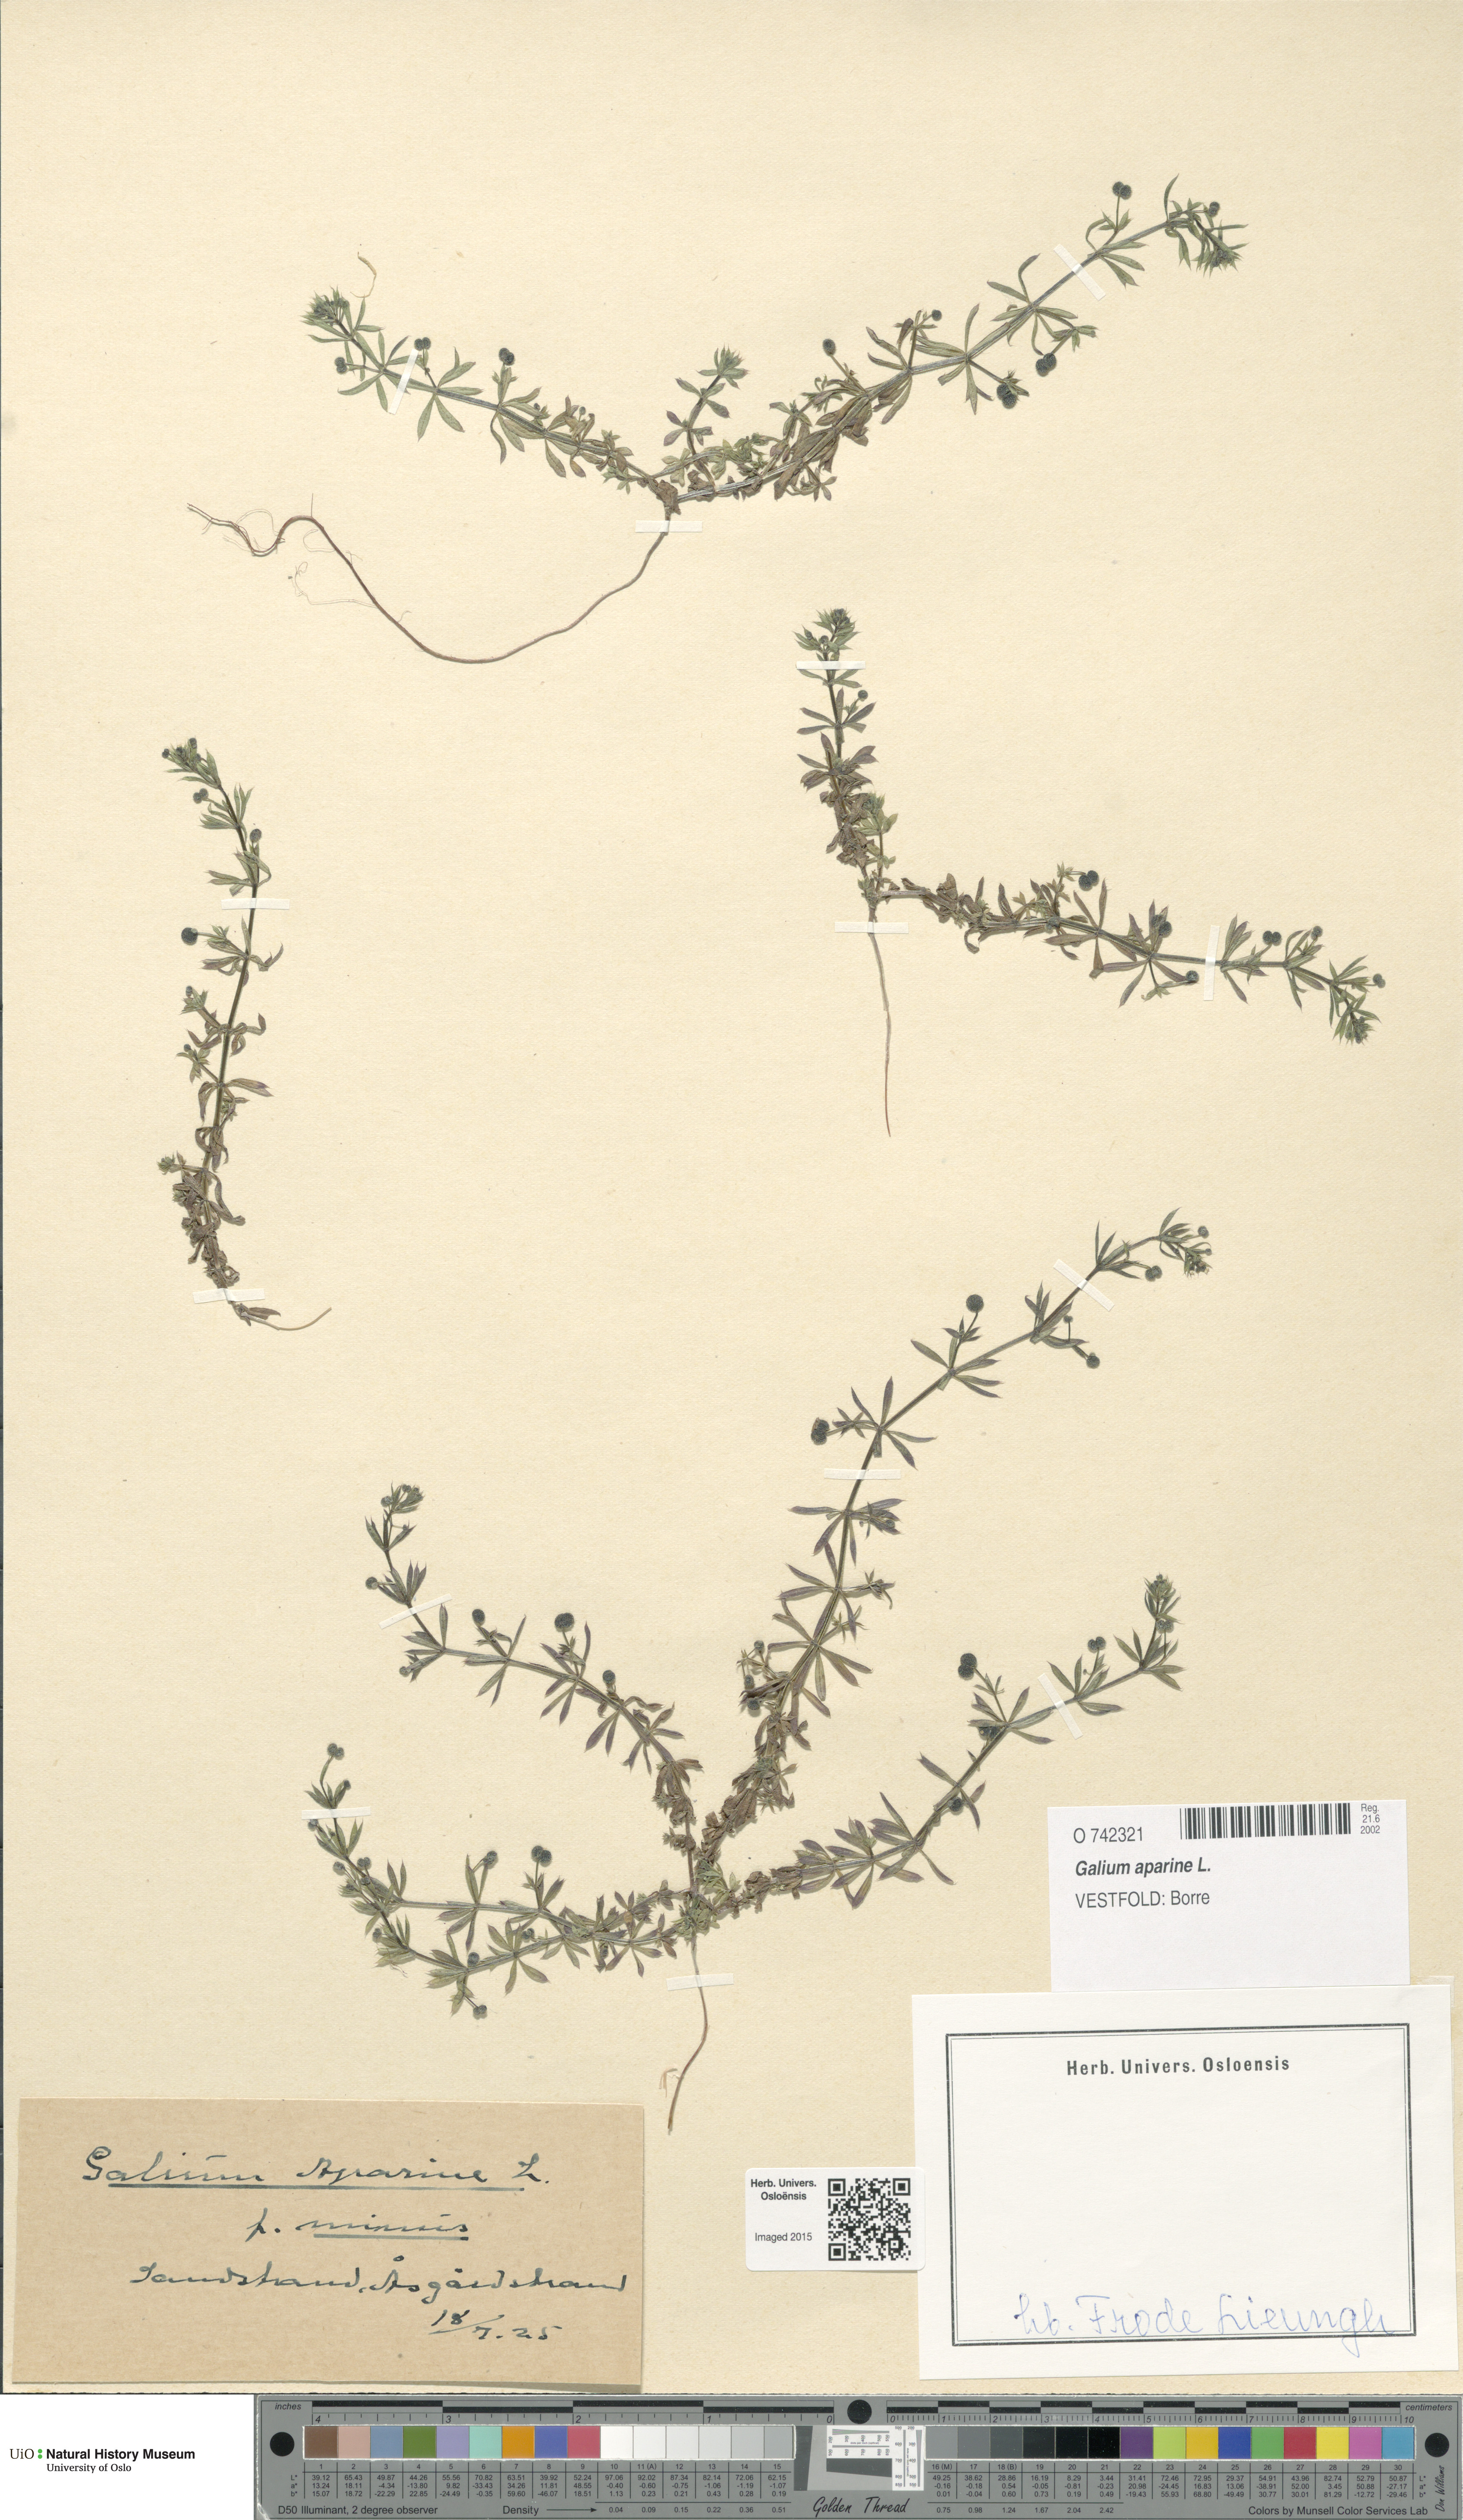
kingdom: Plantae
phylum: Tracheophyta
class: Magnoliopsida
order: Gentianales
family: Rubiaceae
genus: Galium
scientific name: Galium aparine
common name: Cleavers
